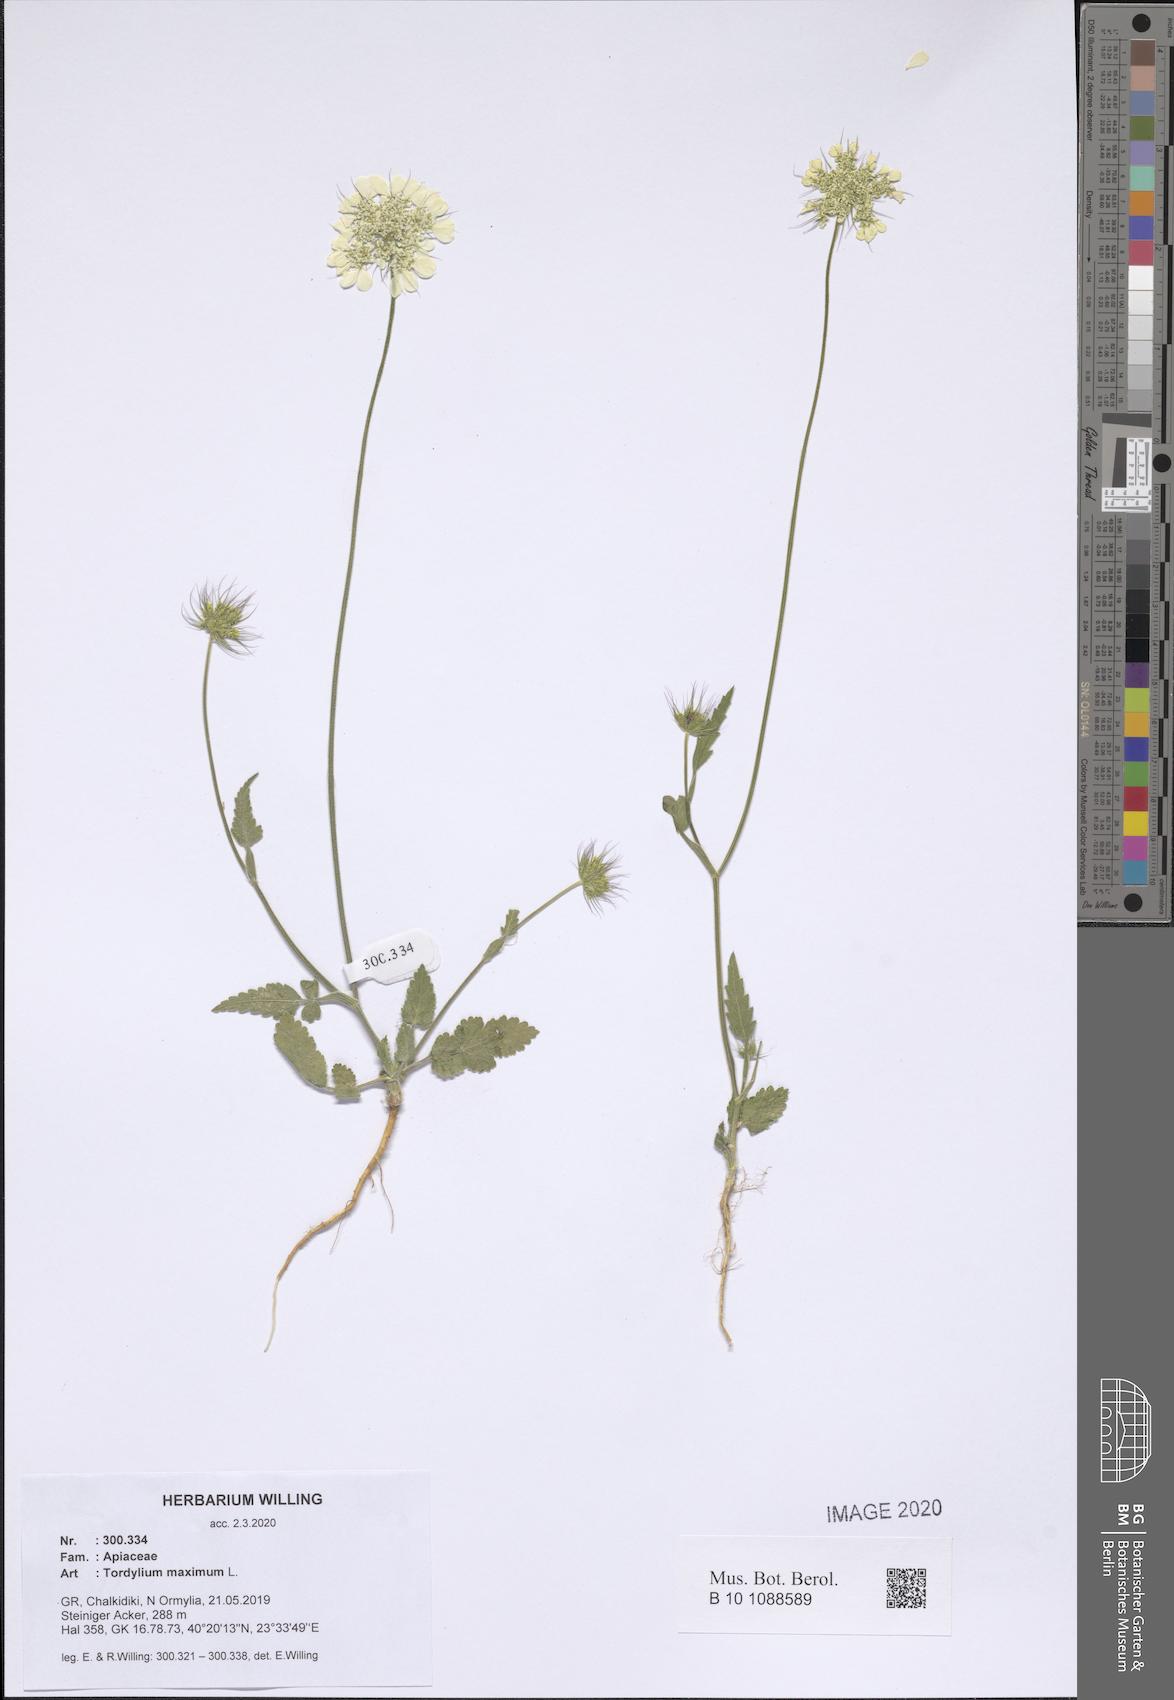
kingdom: Plantae
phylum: Tracheophyta
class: Magnoliopsida
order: Apiales
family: Apiaceae
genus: Tordylium
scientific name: Tordylium maximum
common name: Hartwort
